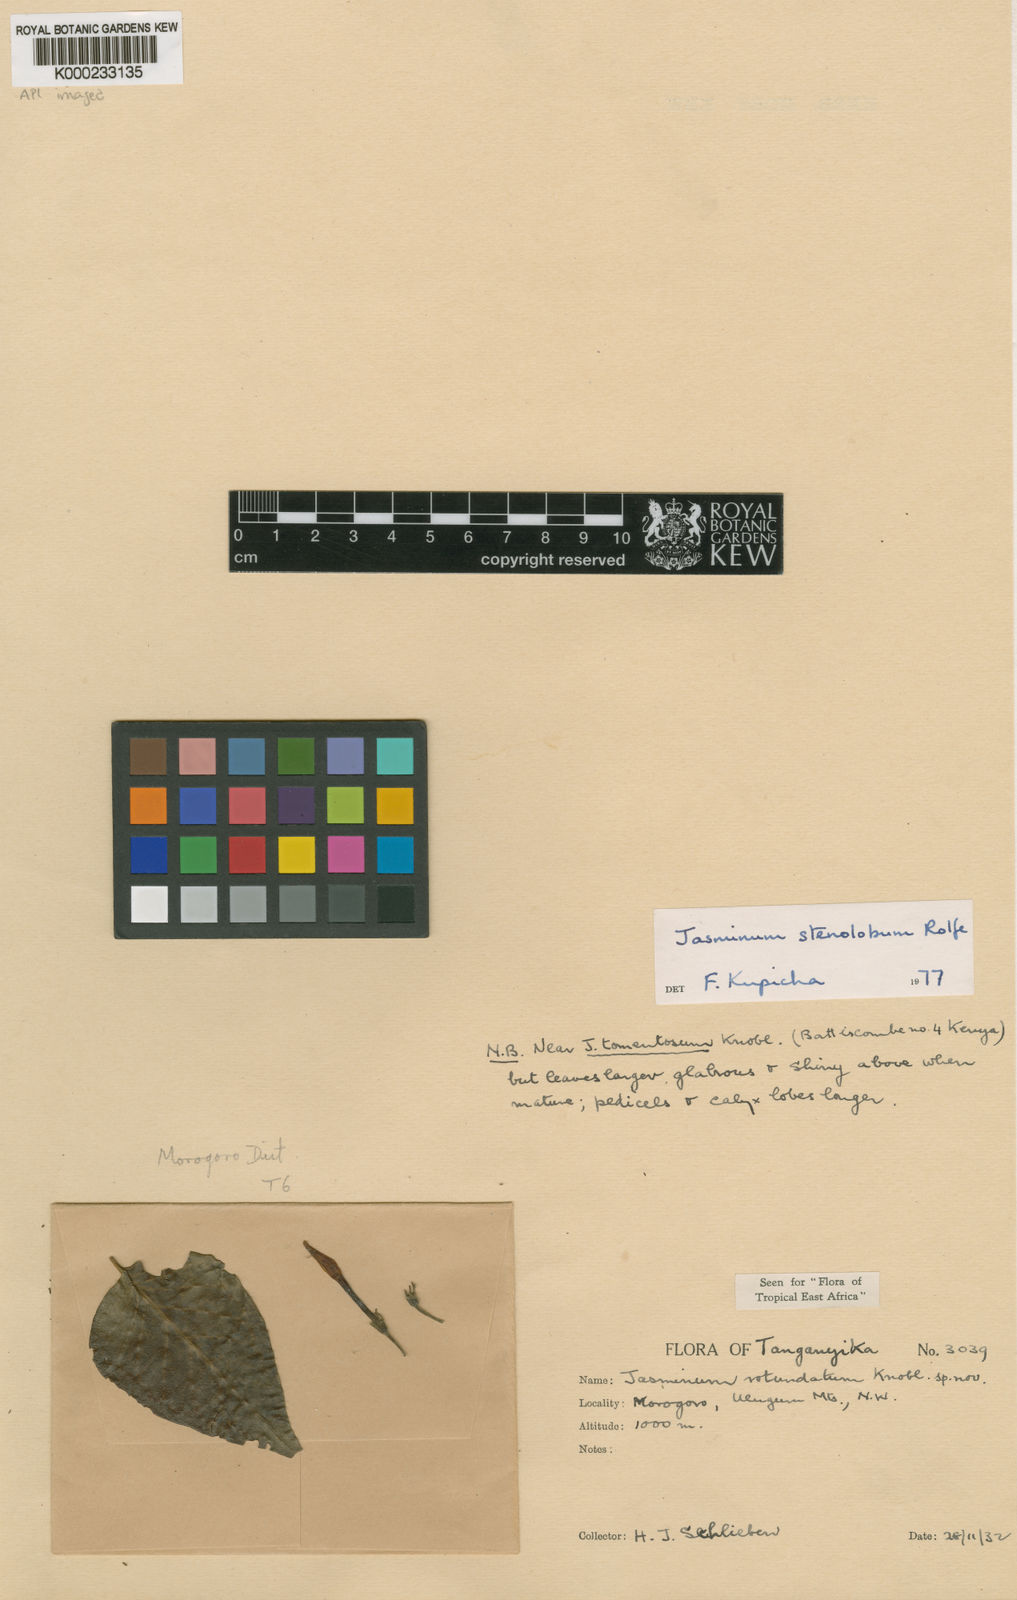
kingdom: Plantae
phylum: Tracheophyta
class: Magnoliopsida
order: Lamiales
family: Oleaceae
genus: Jasminum
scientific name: Jasminum stenolobum
